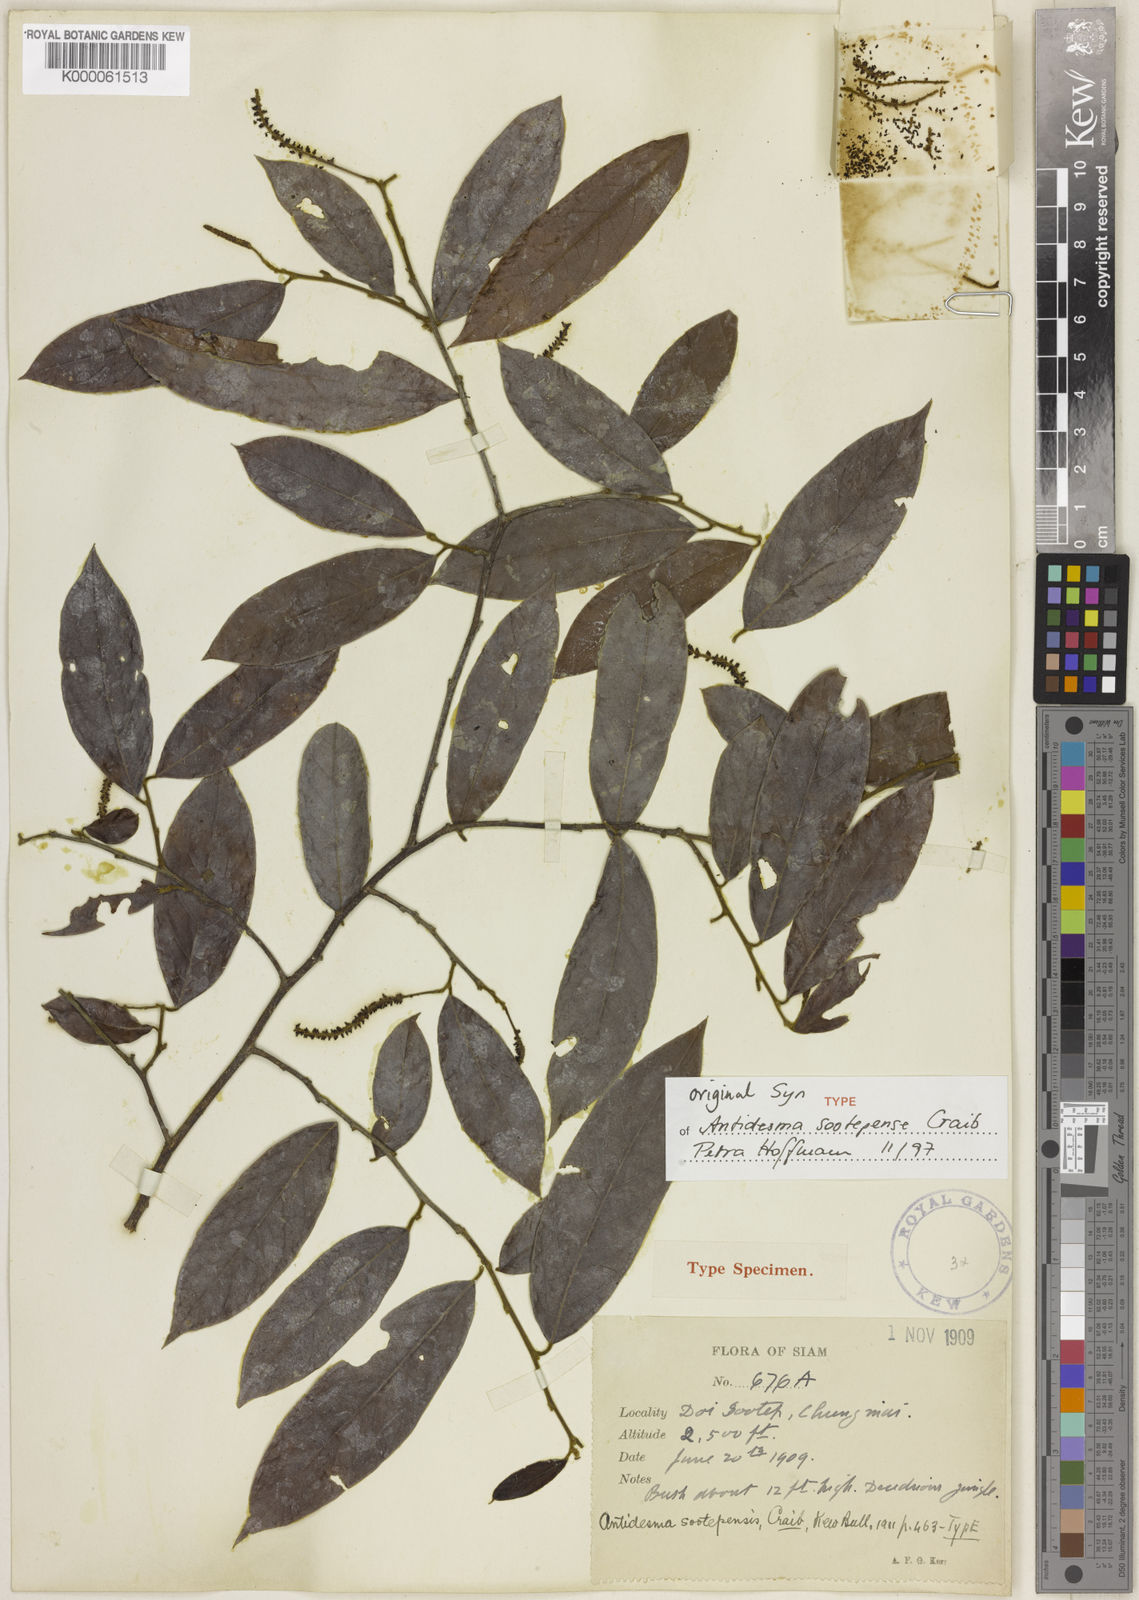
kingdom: Plantae
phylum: Tracheophyta
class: Magnoliopsida
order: Malpighiales
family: Phyllanthaceae
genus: Antidesma
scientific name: Antidesma sootepense
